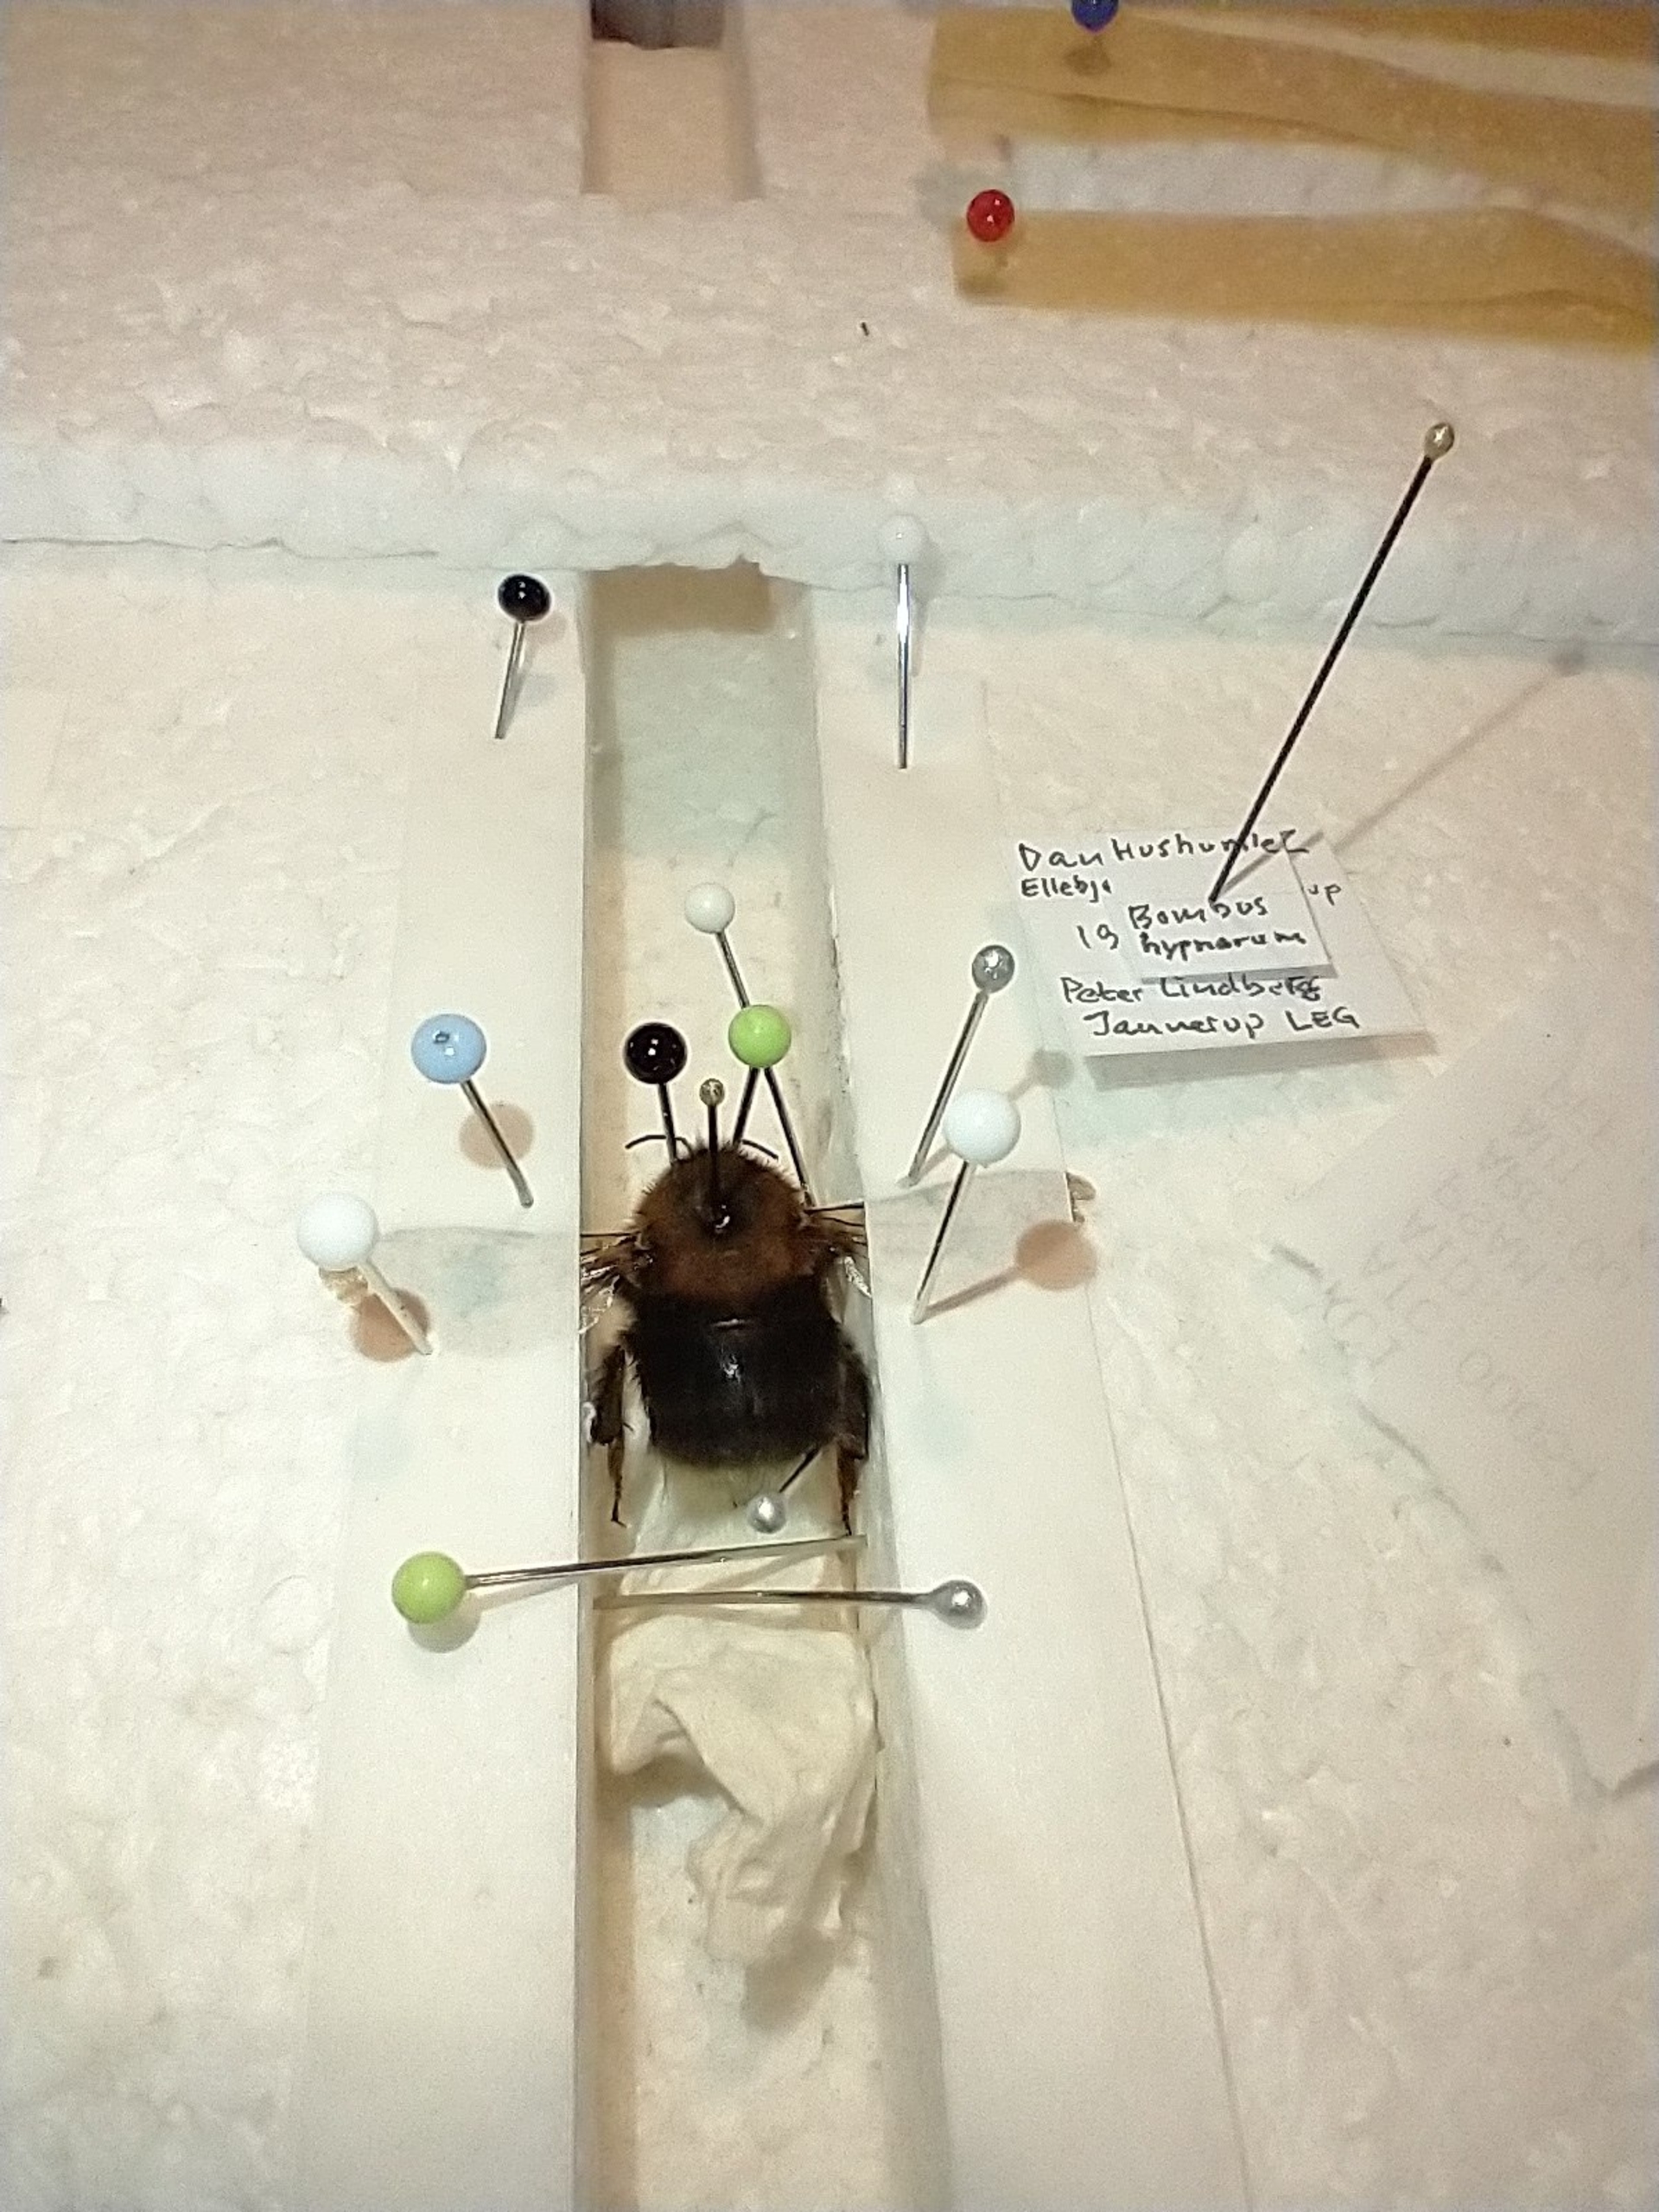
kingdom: Animalia
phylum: Arthropoda
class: Insecta
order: Hymenoptera
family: Apidae
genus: Bombus
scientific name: Bombus hypnorum
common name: Hushumle
